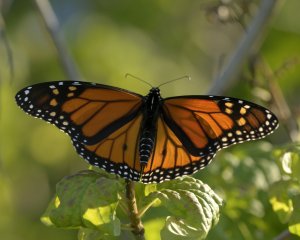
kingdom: Animalia
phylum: Arthropoda
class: Insecta
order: Lepidoptera
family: Nymphalidae
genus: Danaus
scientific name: Danaus plexippus
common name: Monarch
